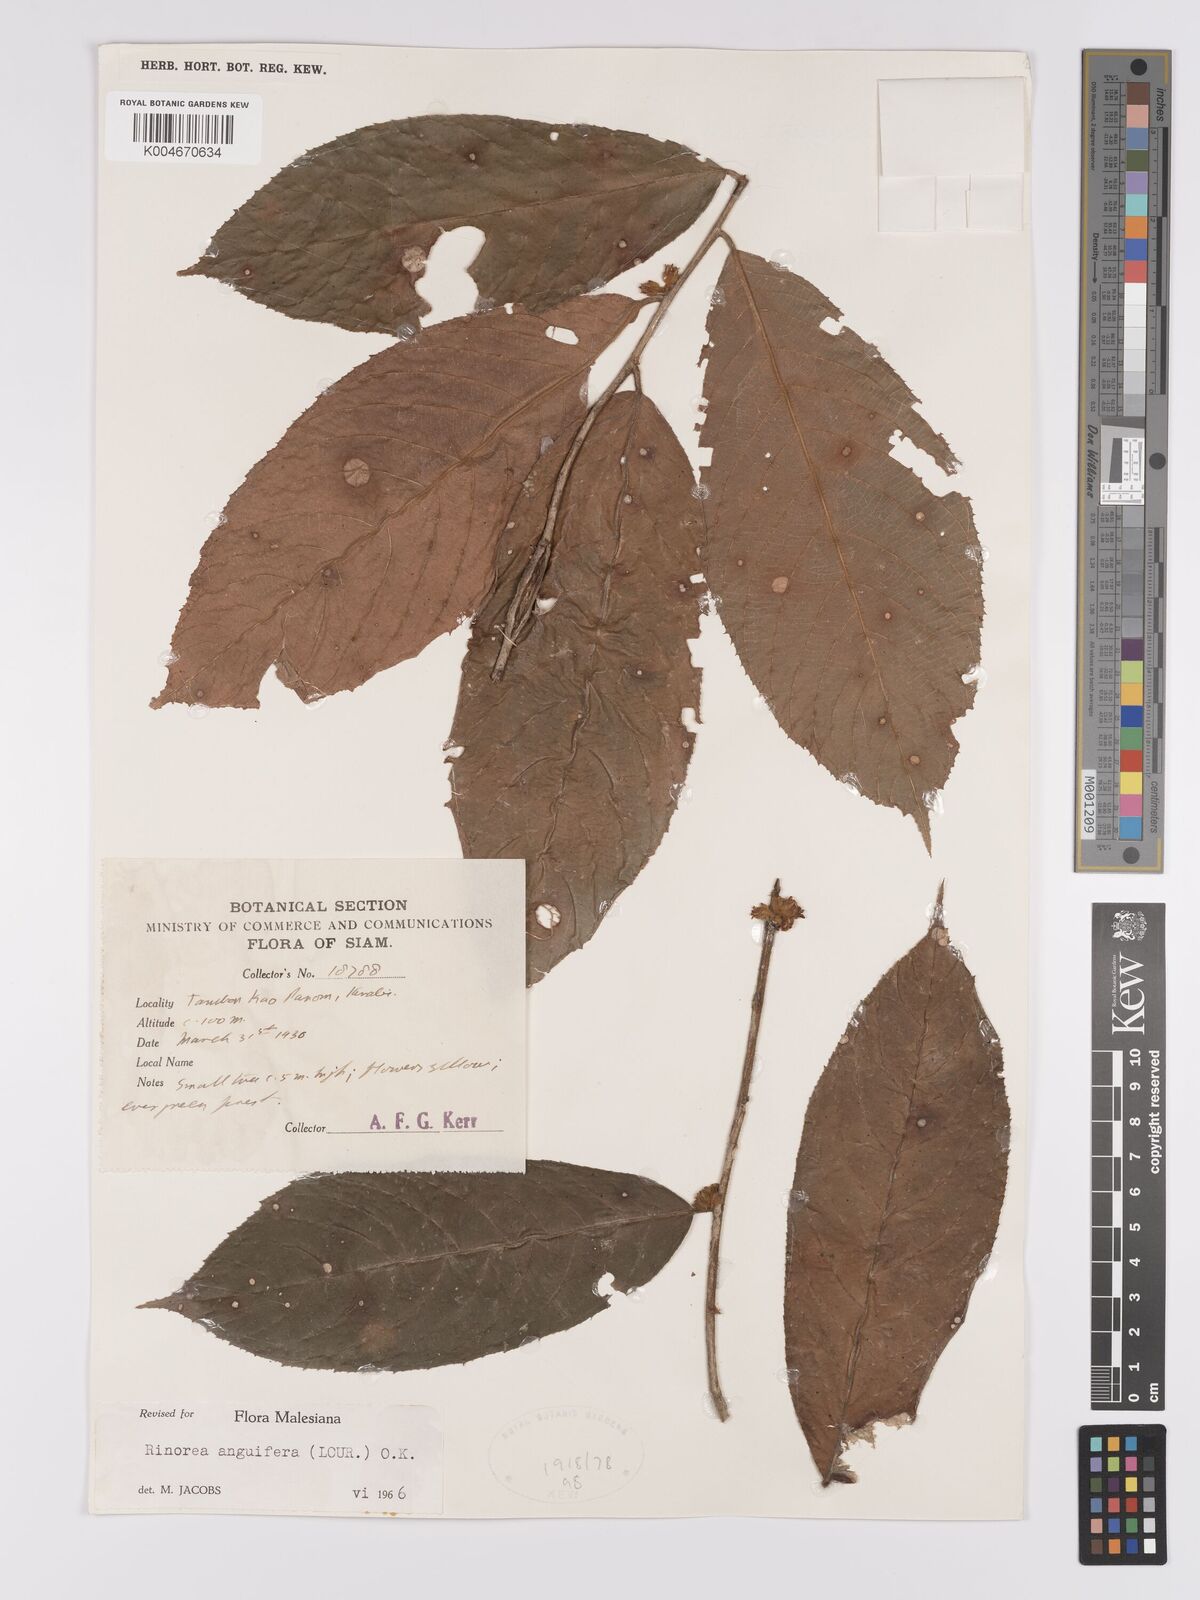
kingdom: Plantae
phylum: Tracheophyta
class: Magnoliopsida
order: Malpighiales
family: Violaceae
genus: Rinorea
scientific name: Rinorea anguifera
